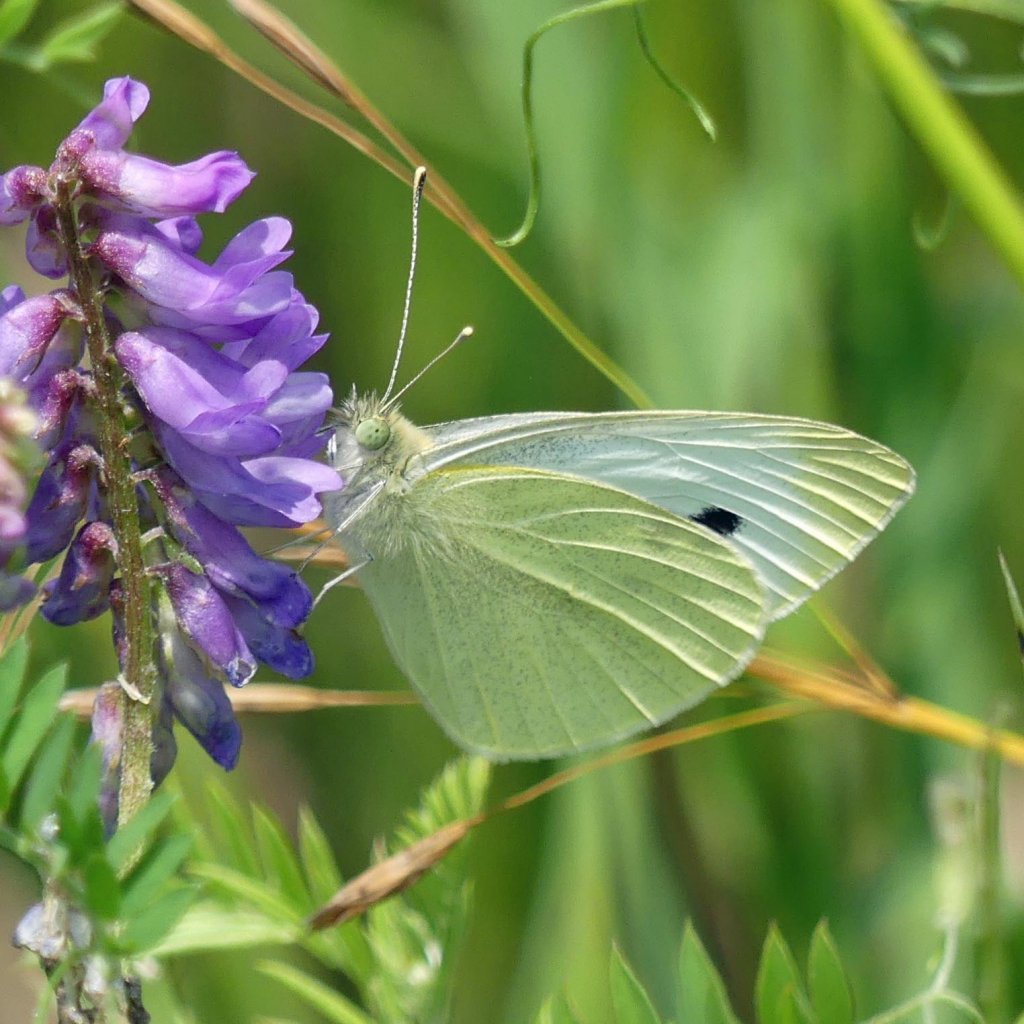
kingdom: Animalia
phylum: Arthropoda
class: Insecta
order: Lepidoptera
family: Pieridae
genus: Pieris
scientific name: Pieris rapae
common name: Cabbage White
